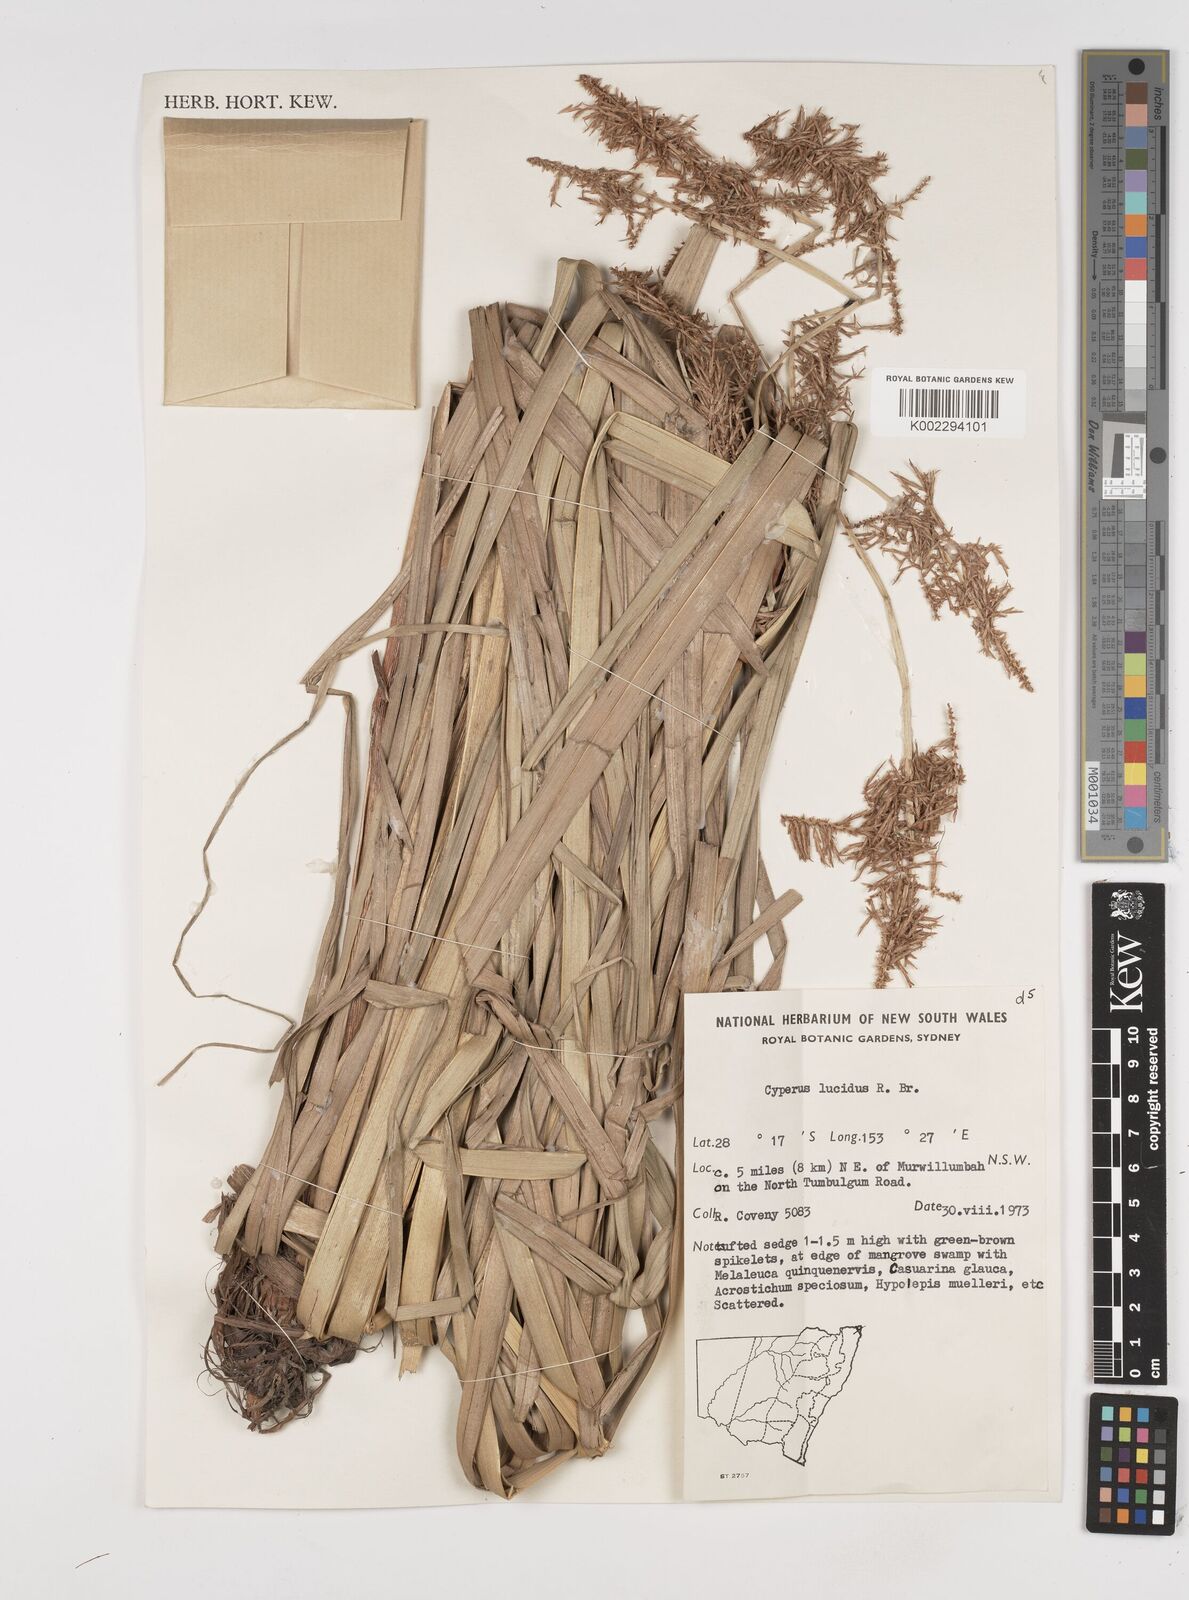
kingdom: Plantae
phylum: Tracheophyta
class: Liliopsida
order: Poales
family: Cyperaceae
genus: Cyperus
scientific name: Cyperus lucidus
